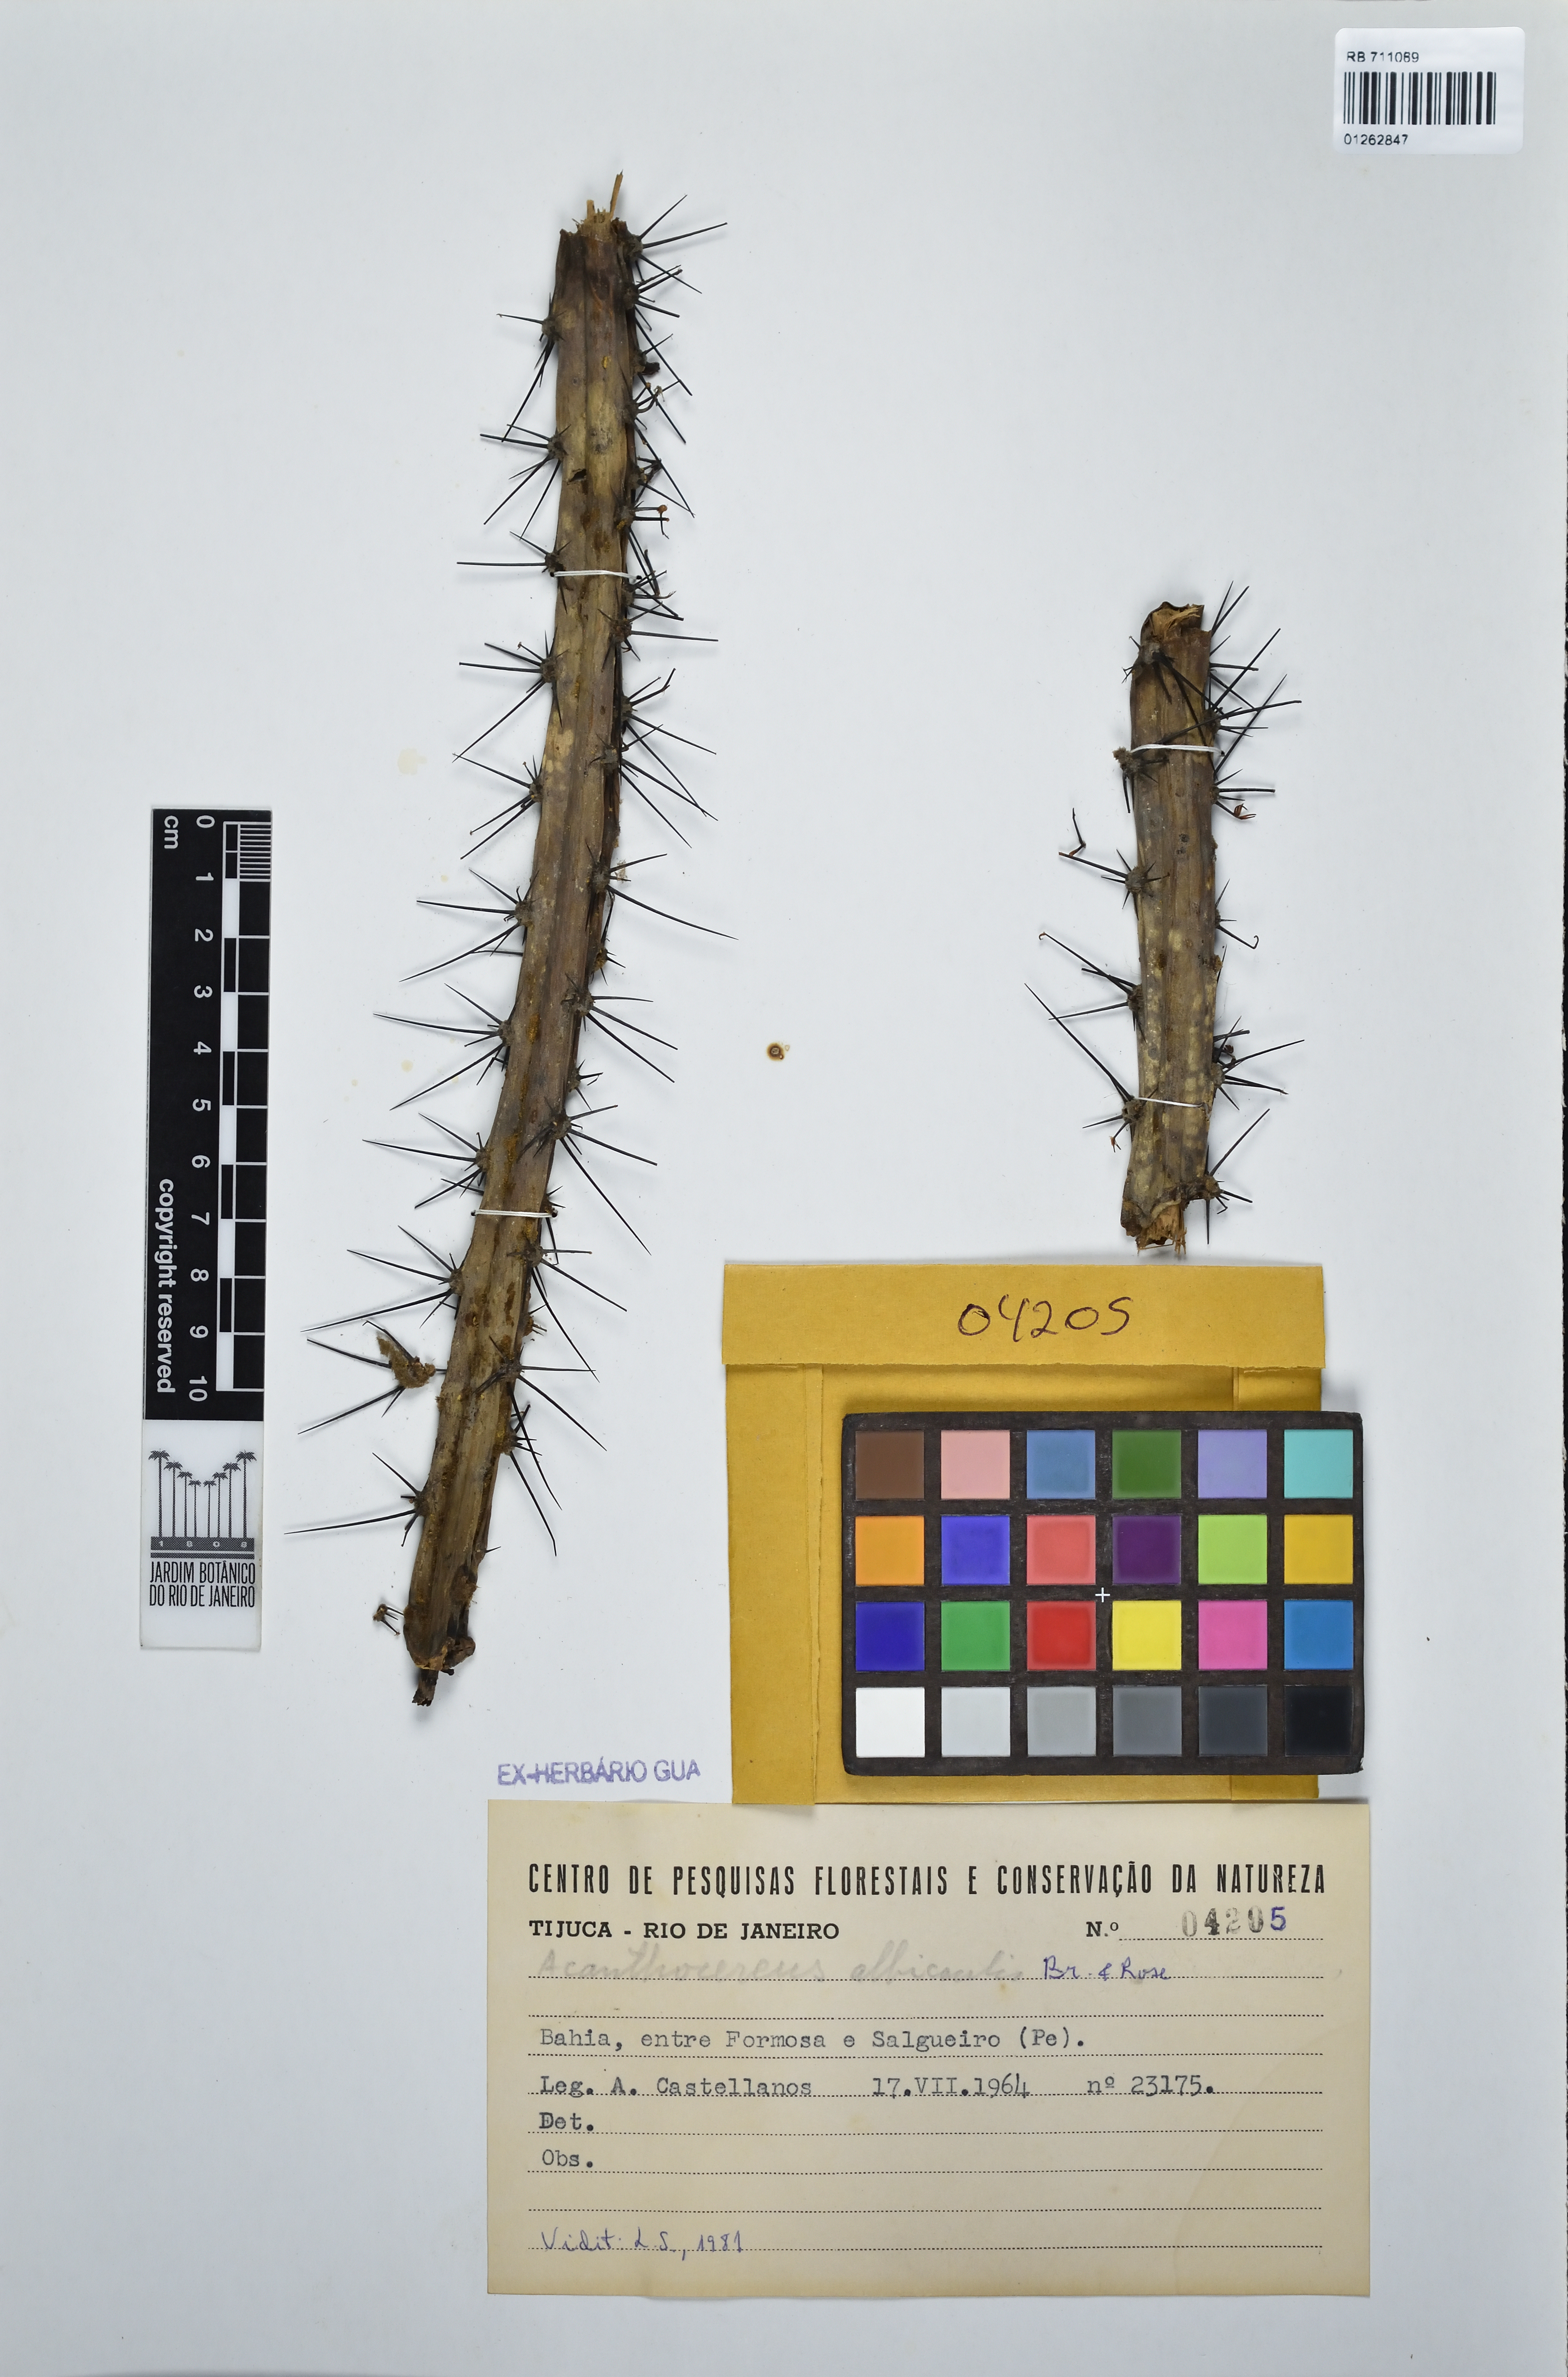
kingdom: Plantae
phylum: Tracheophyta
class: Magnoliopsida
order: Caryophyllales
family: Cactaceae
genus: Cereus
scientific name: Cereus albicaulis
